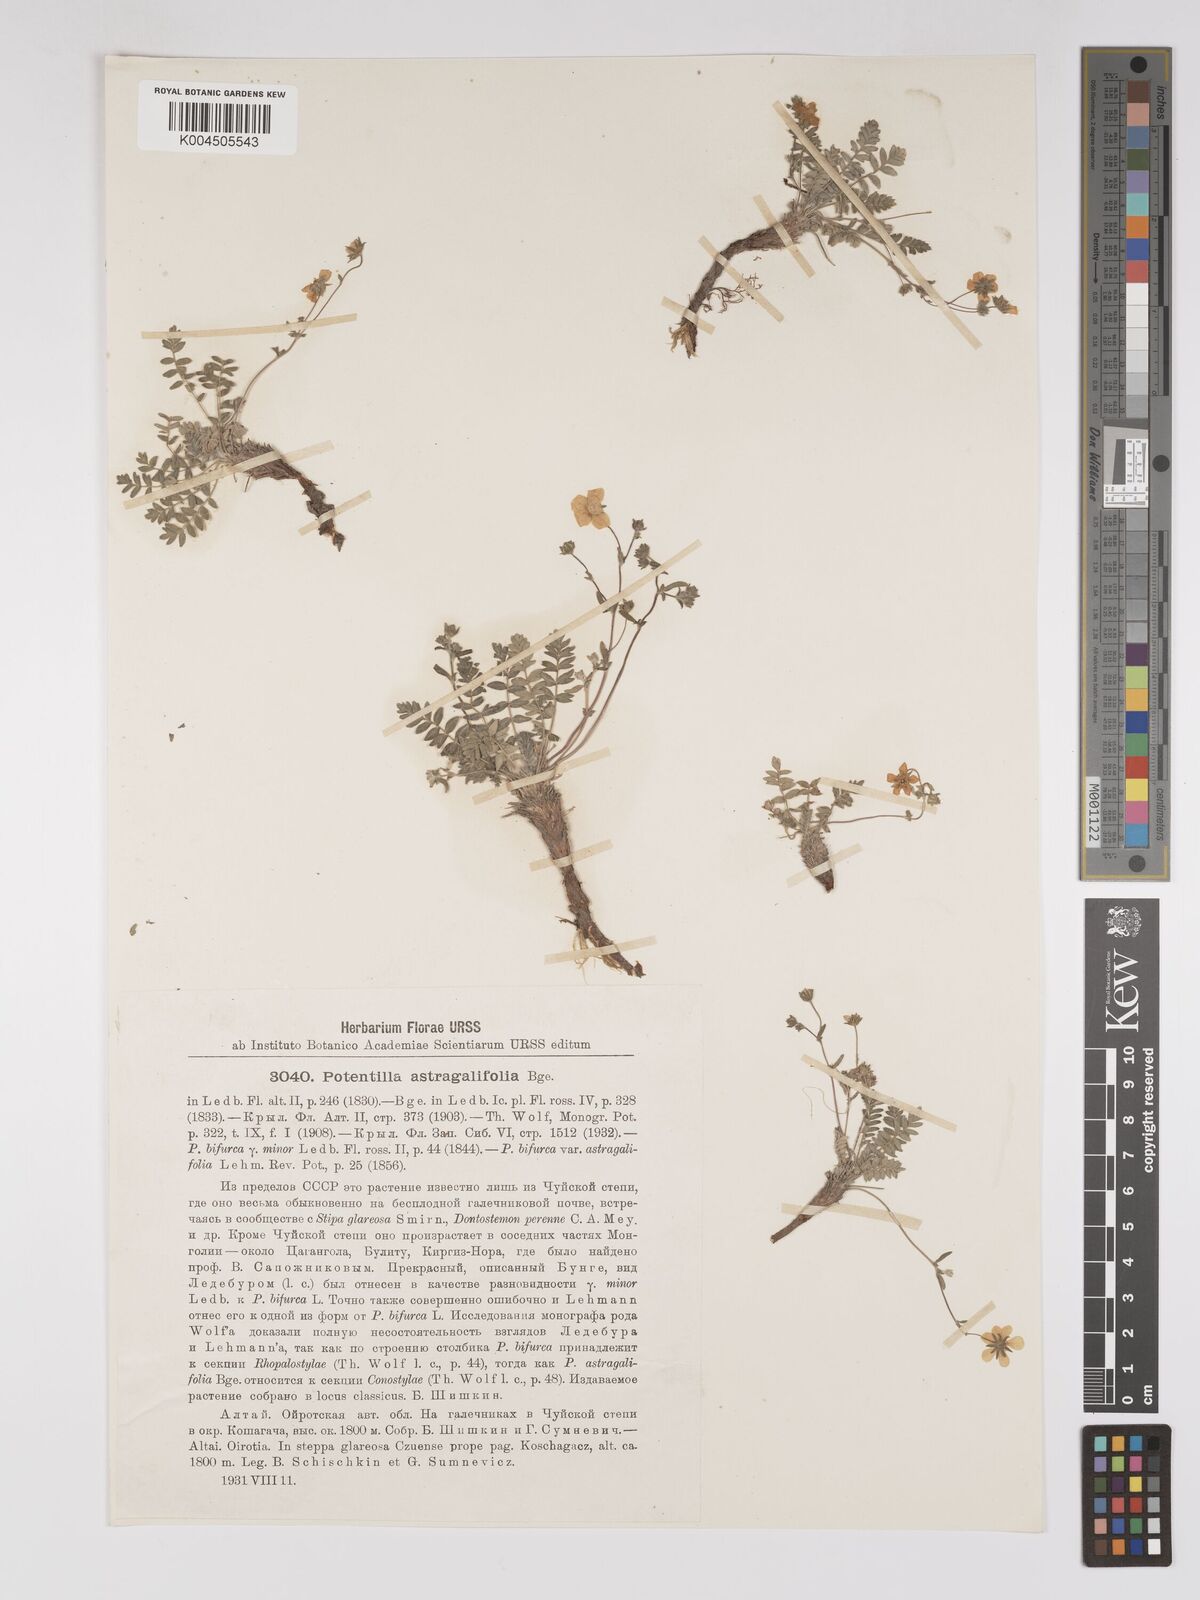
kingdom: Plantae
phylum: Tracheophyta
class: Magnoliopsida
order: Rosales
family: Rosaceae
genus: Sibbaldianthe
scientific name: Sibbaldianthe bifurca
